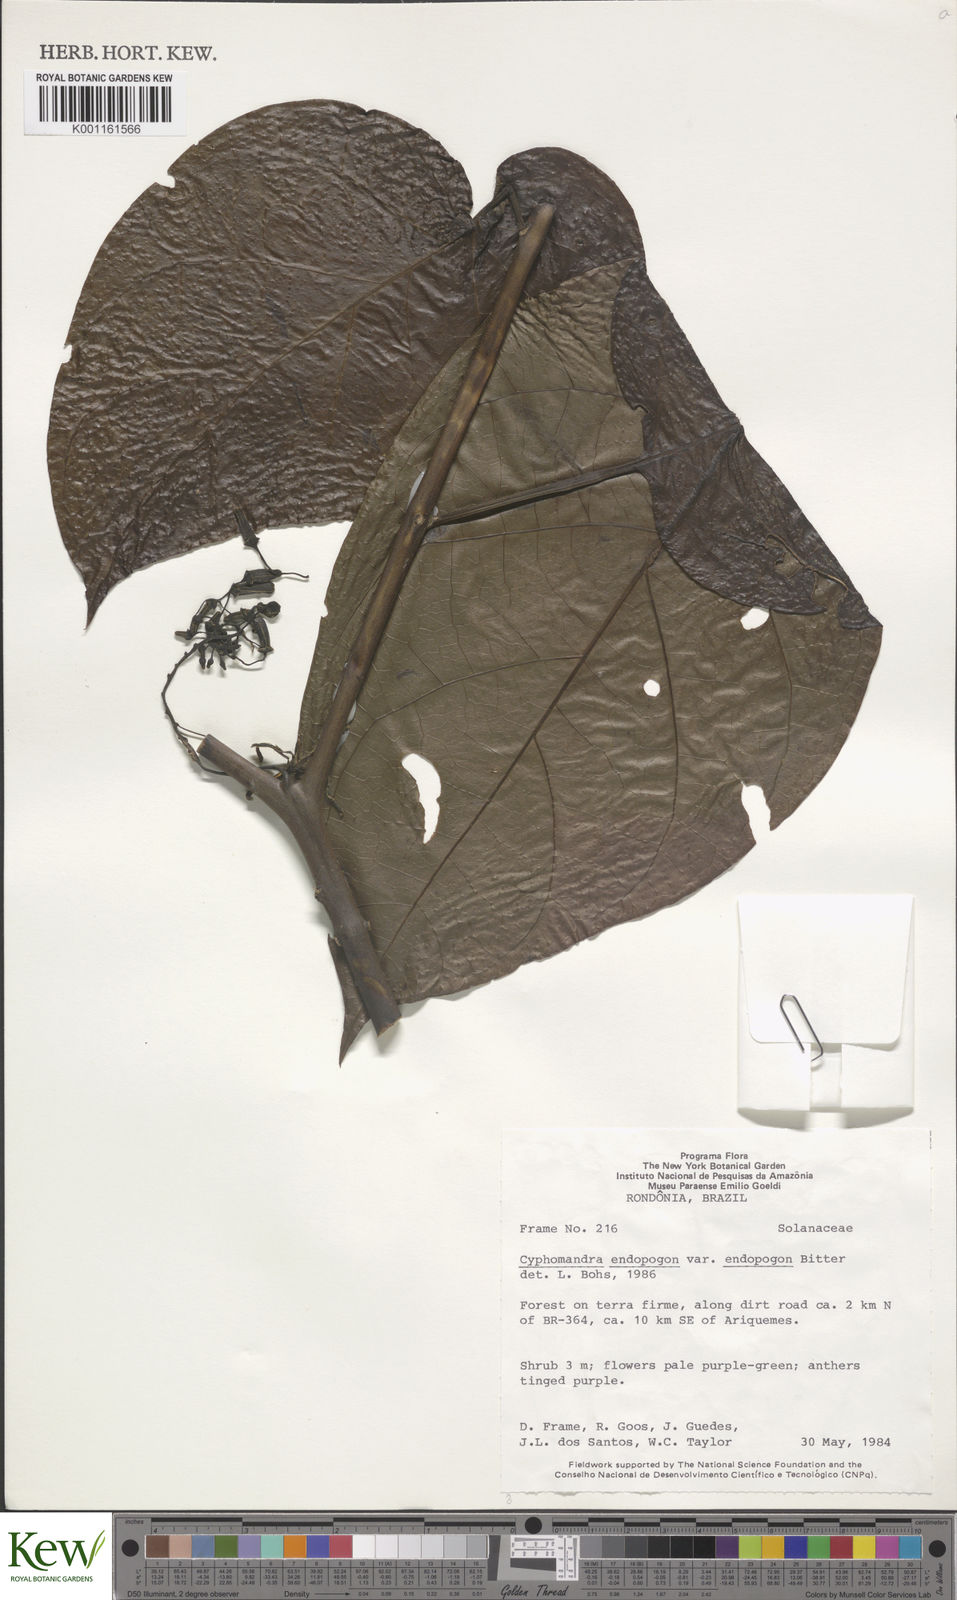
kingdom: Plantae
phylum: Tracheophyta
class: Magnoliopsida
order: Solanales
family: Solanaceae
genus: Solanum
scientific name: Solanum endopogon
